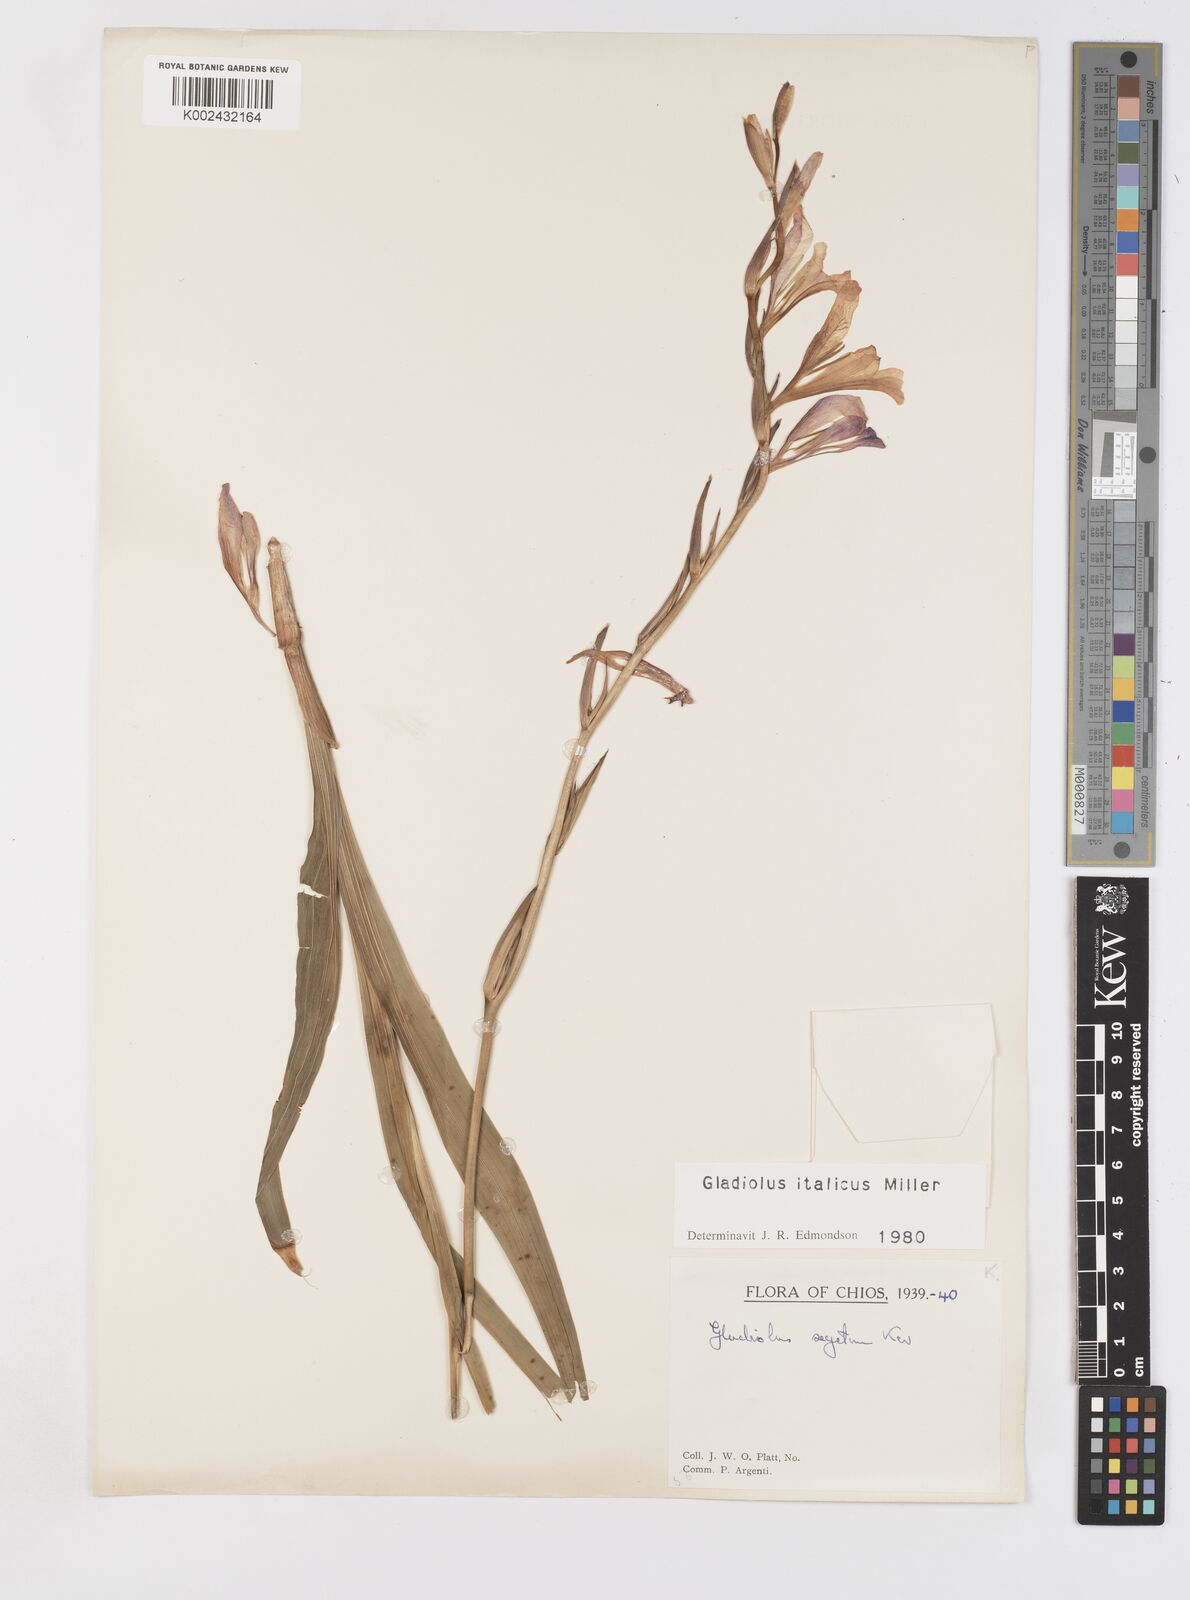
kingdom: Plantae
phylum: Tracheophyta
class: Liliopsida
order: Asparagales
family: Iridaceae
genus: Gladiolus
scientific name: Gladiolus italicus
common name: Field gladiolus
